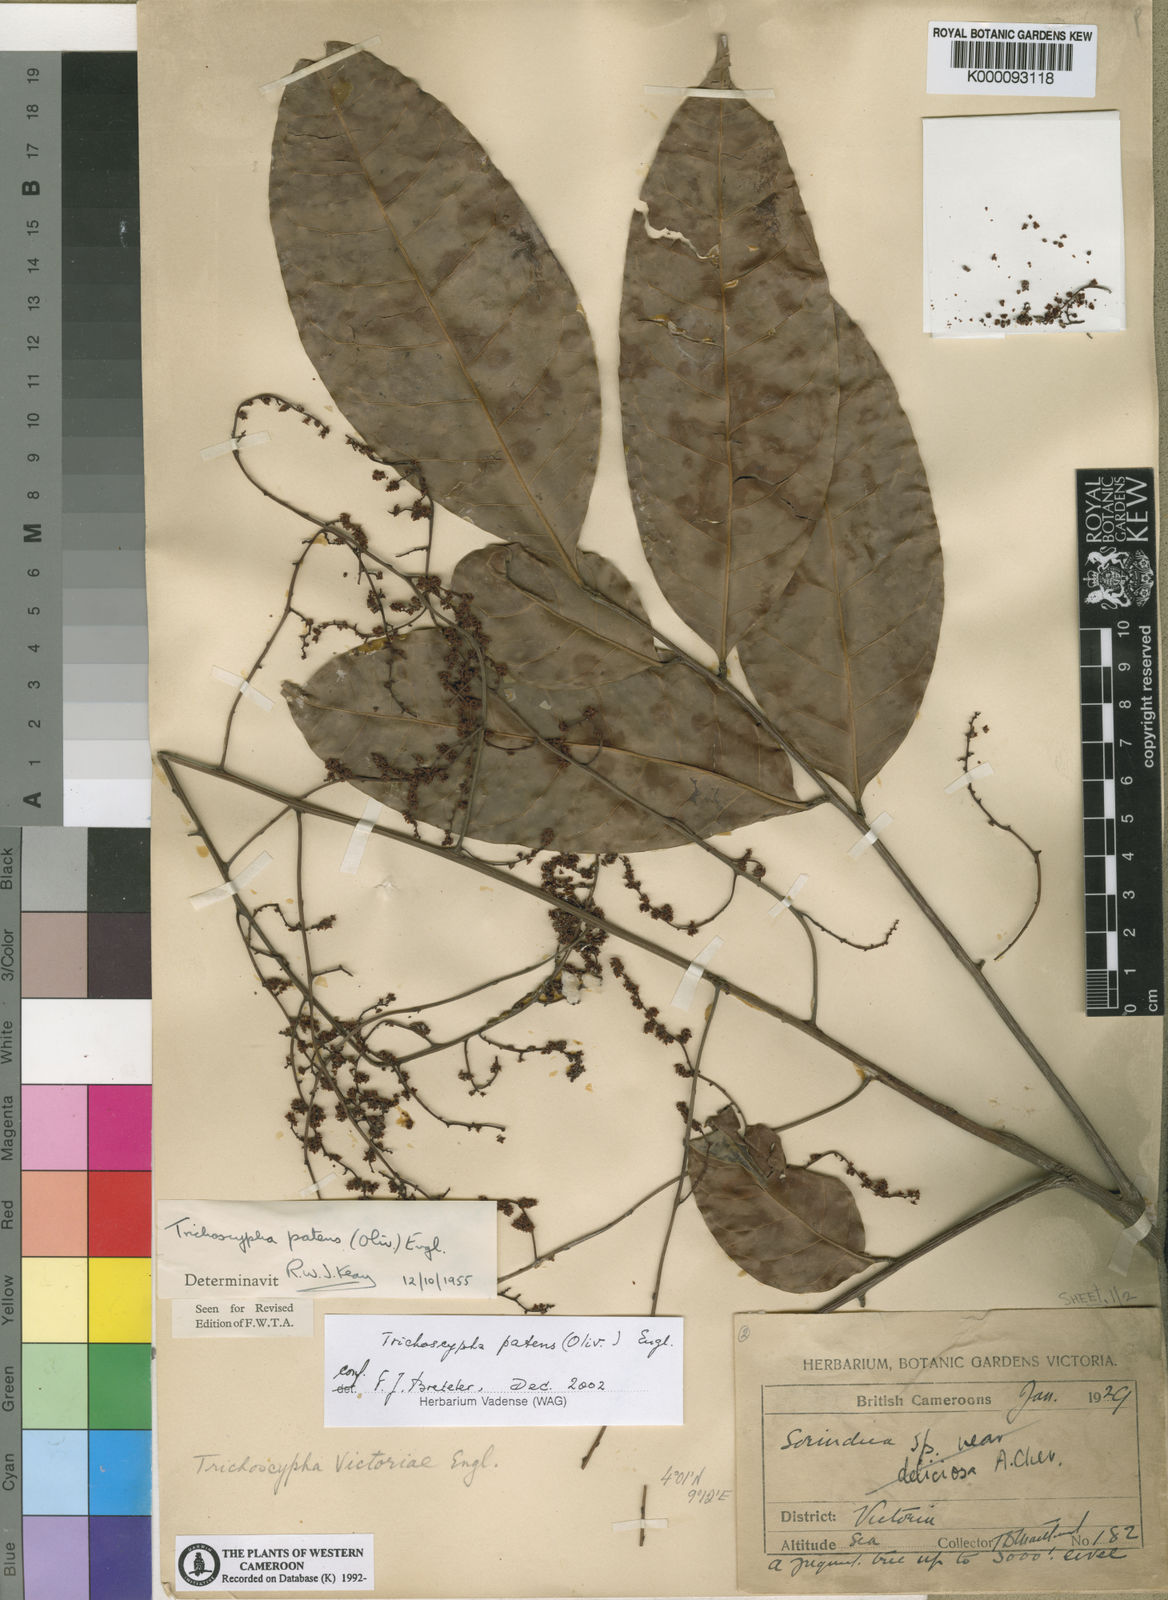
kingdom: Plantae
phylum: Tracheophyta
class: Magnoliopsida
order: Sapindales
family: Anacardiaceae
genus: Trichoscypha
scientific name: Trichoscypha patens
